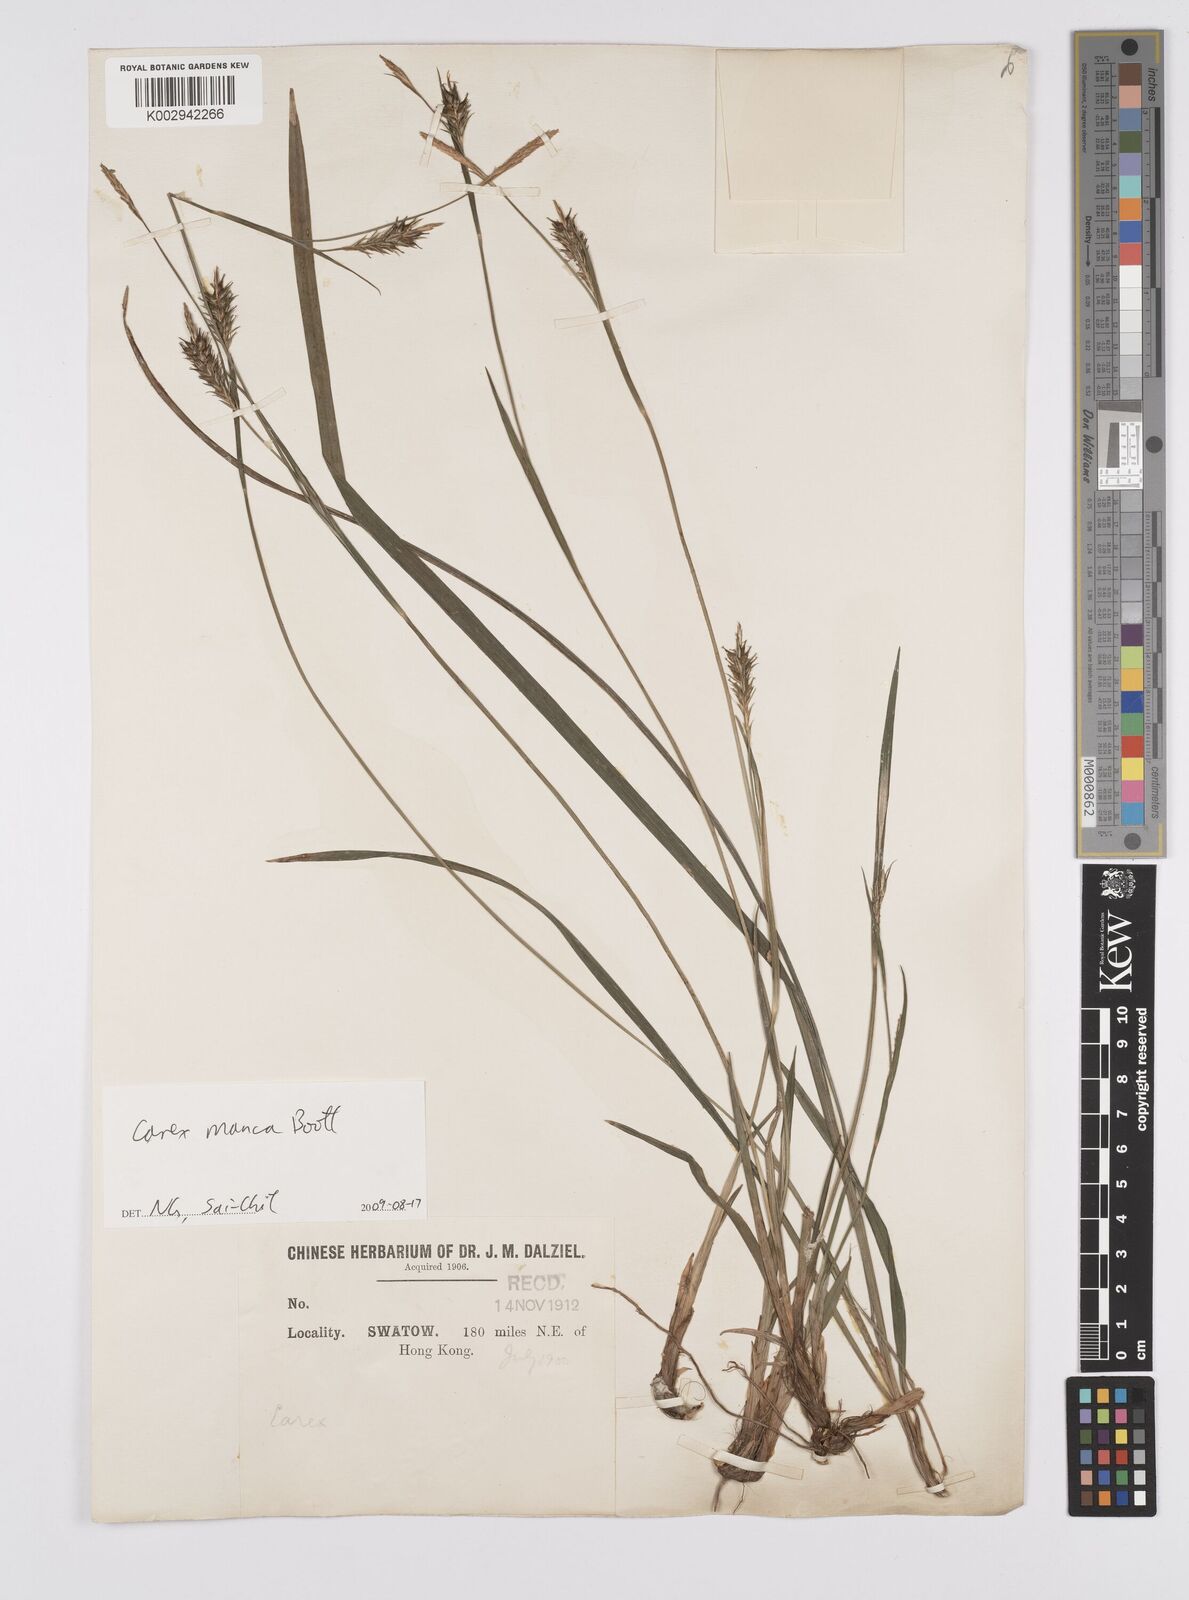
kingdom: Plantae
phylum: Tracheophyta
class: Liliopsida
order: Poales
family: Cyperaceae
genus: Carex
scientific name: Carex manca
